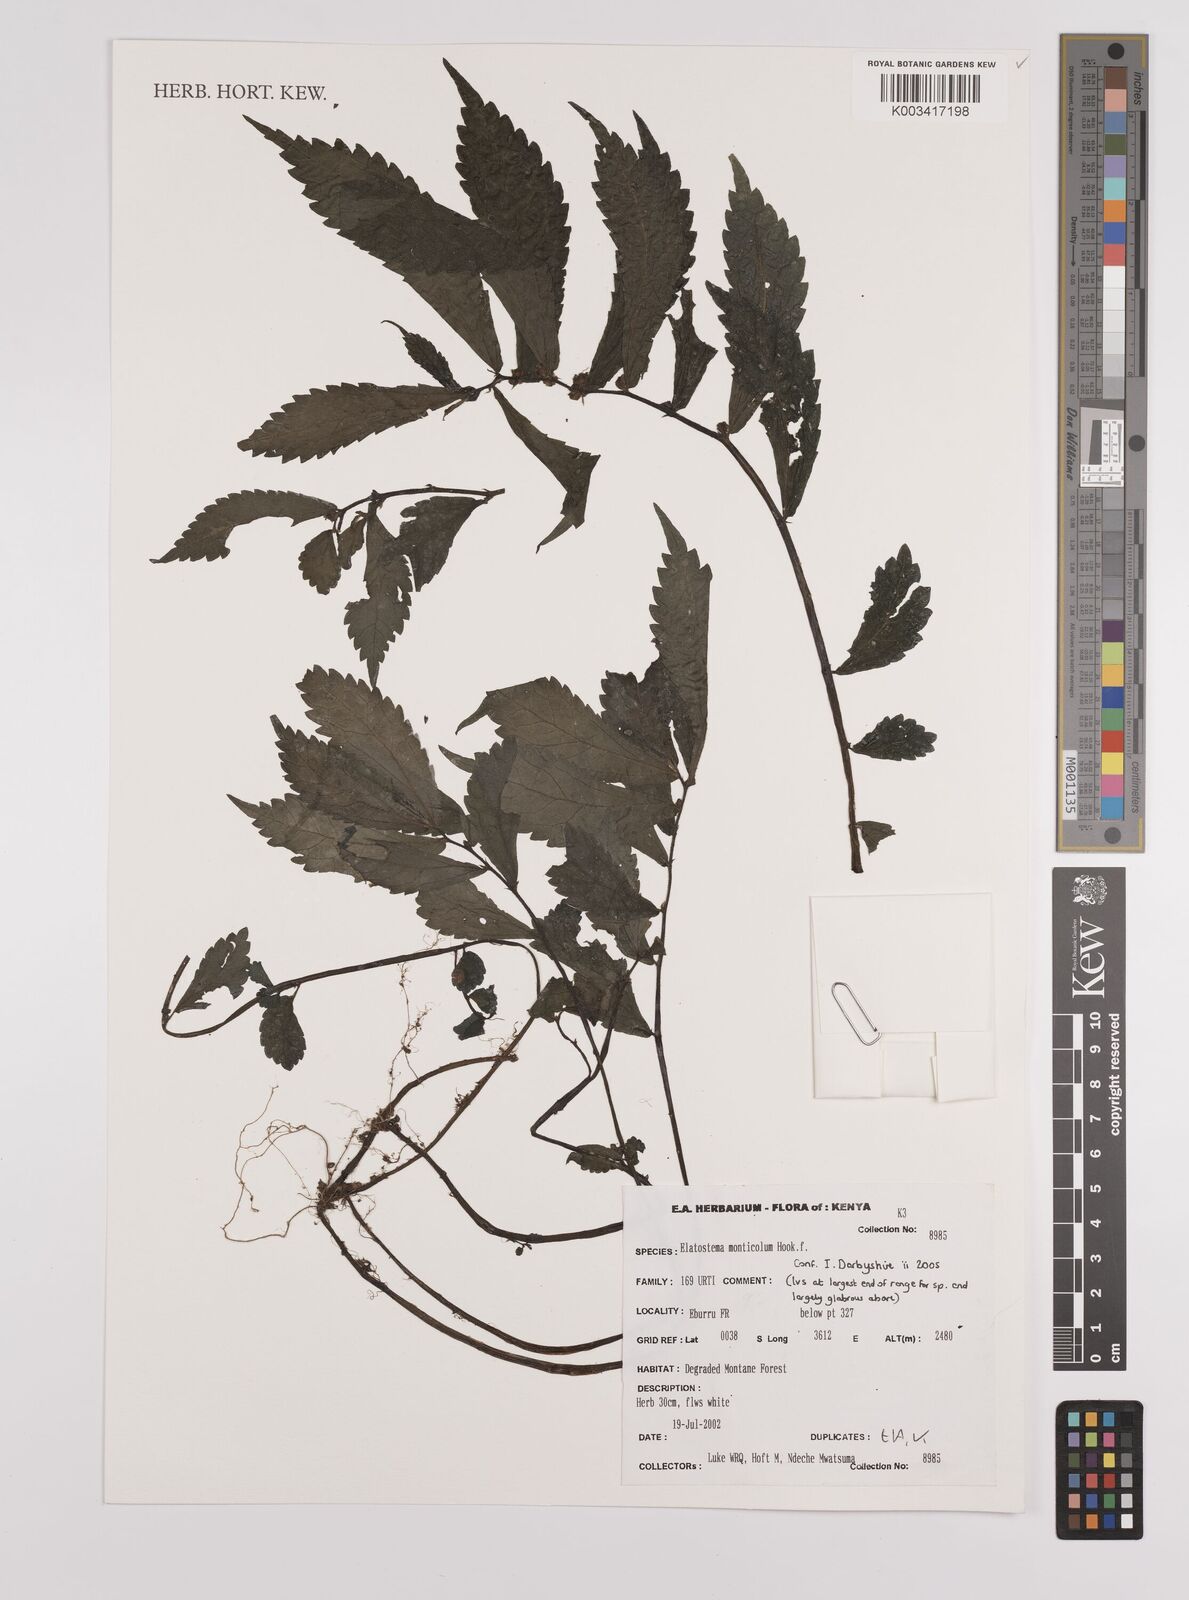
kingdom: Plantae
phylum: Tracheophyta
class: Magnoliopsida
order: Rosales
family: Urticaceae
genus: Elatostema
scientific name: Elatostema monticola
